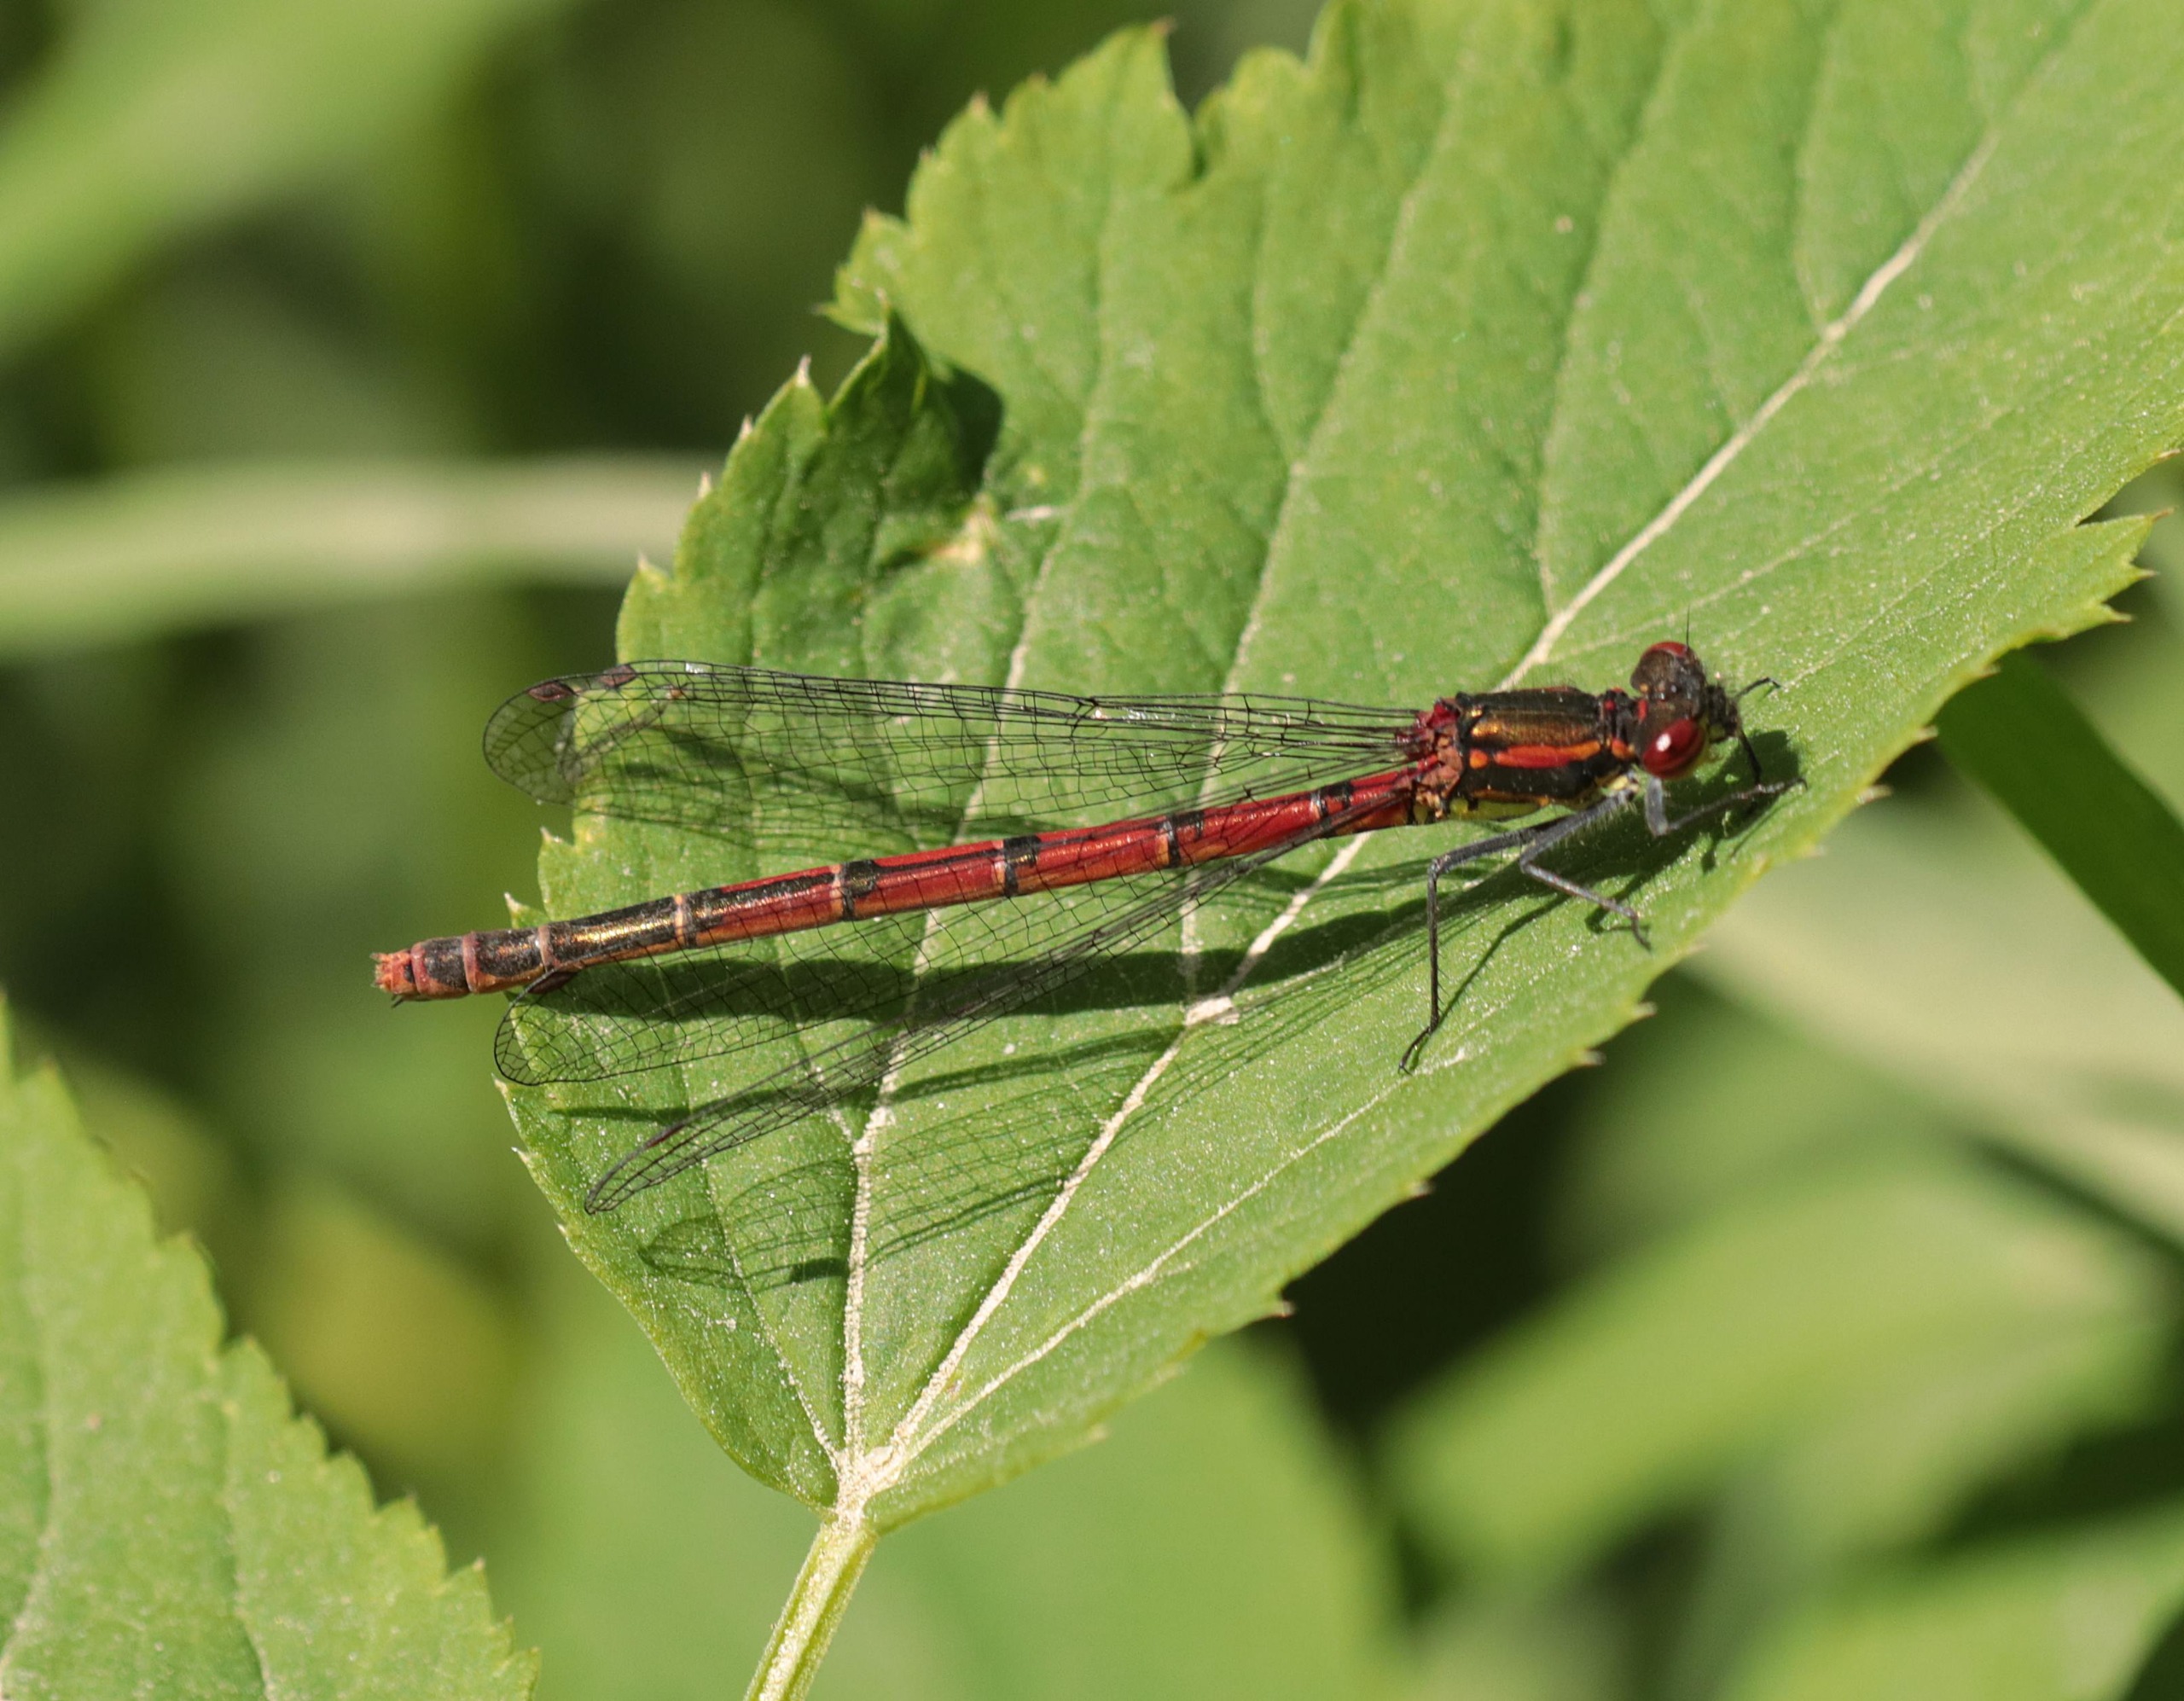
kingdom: Animalia
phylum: Arthropoda
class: Insecta
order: Odonata
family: Coenagrionidae
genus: Pyrrhosoma
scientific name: Pyrrhosoma nymphula
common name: Rød vandnymfe
